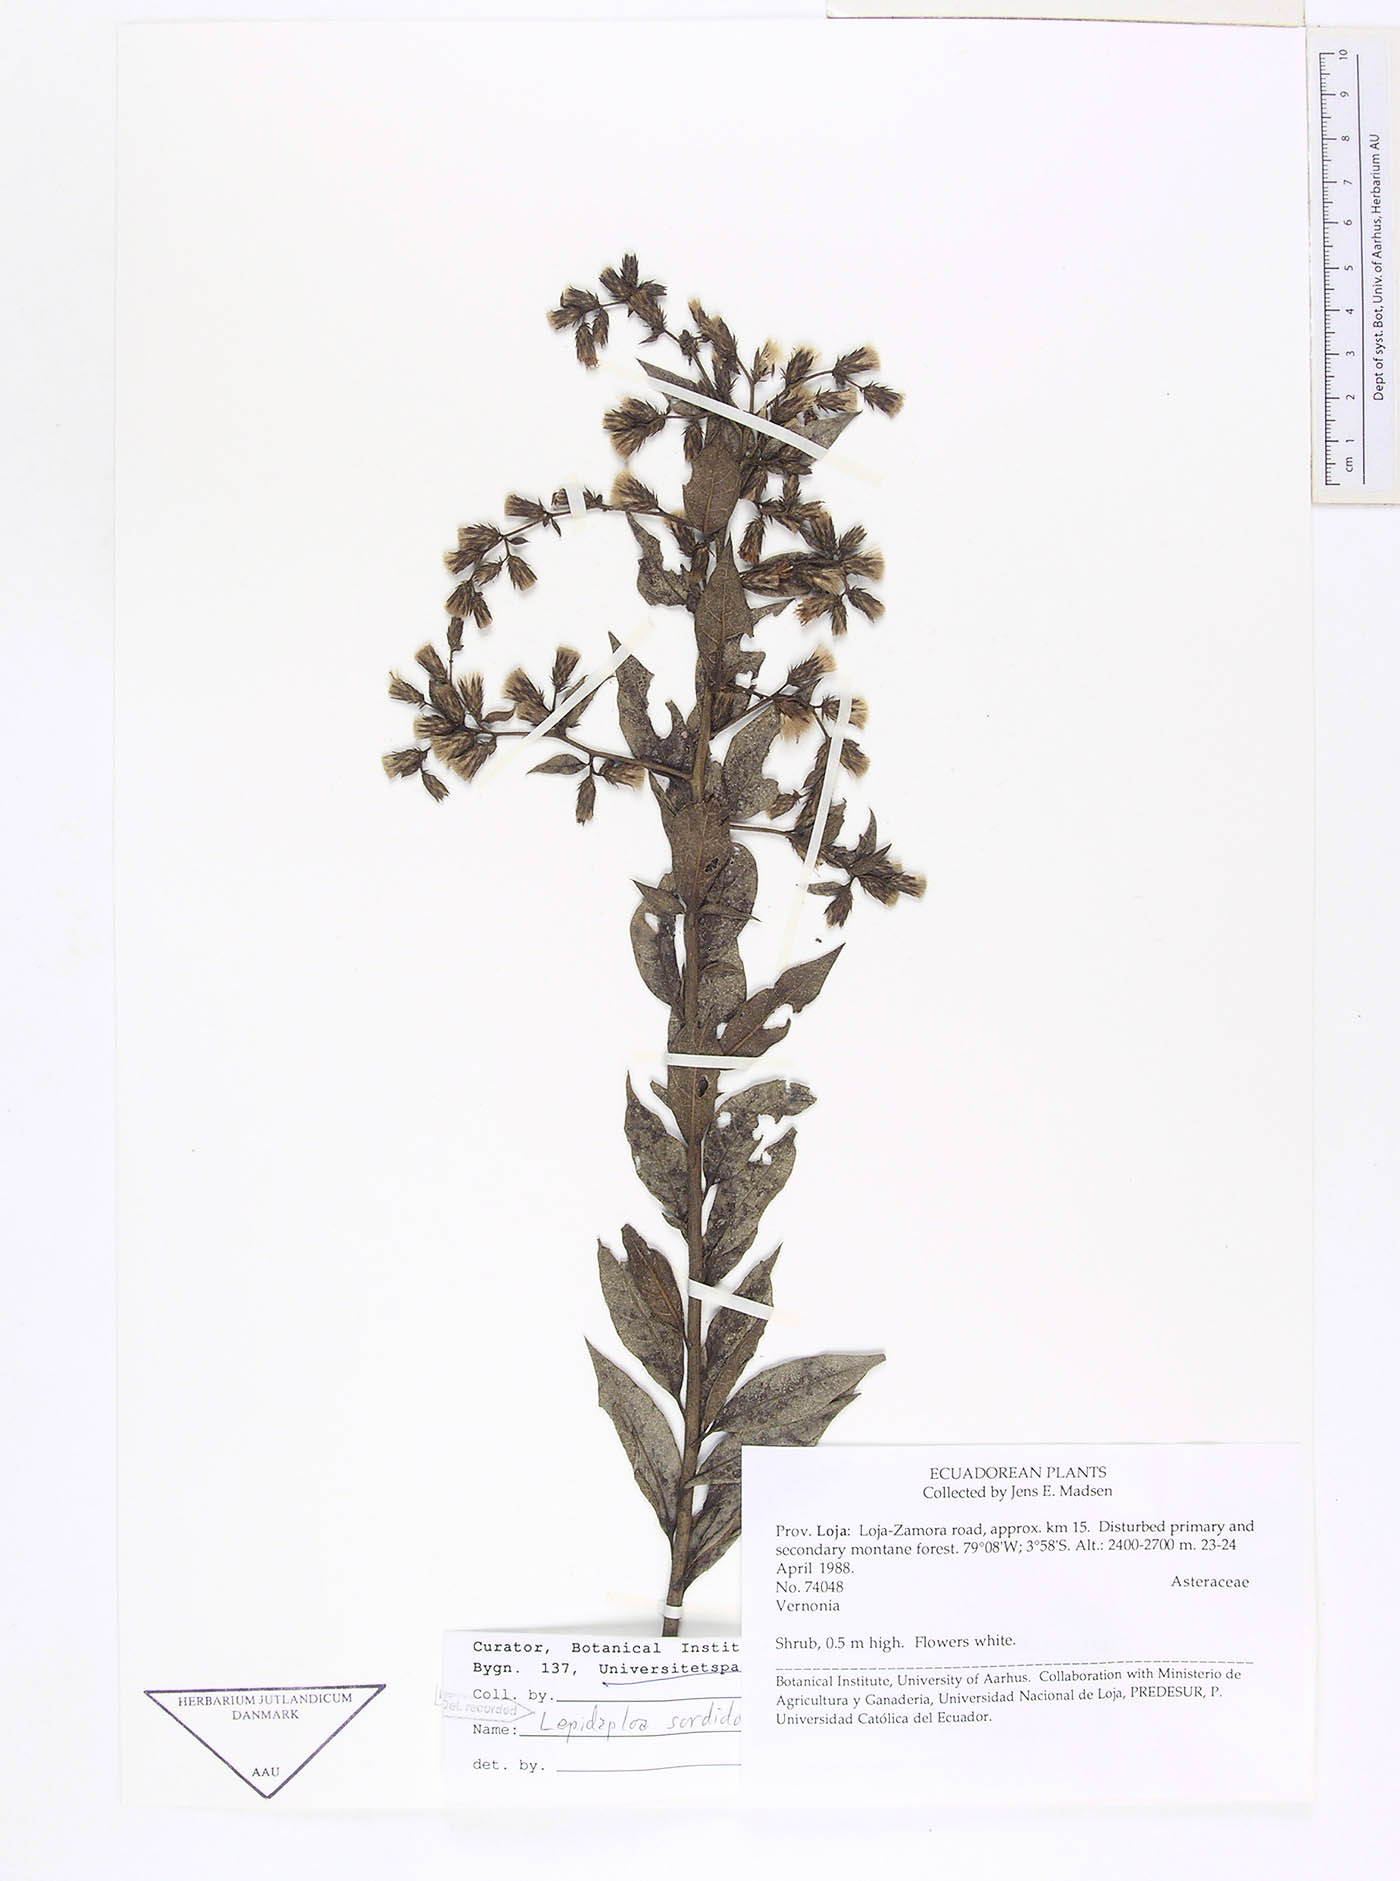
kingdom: Plantae
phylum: Tracheophyta
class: Magnoliopsida
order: Asterales
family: Asteraceae
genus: Lepidaploa
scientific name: Lepidaploa sordidopapposa
